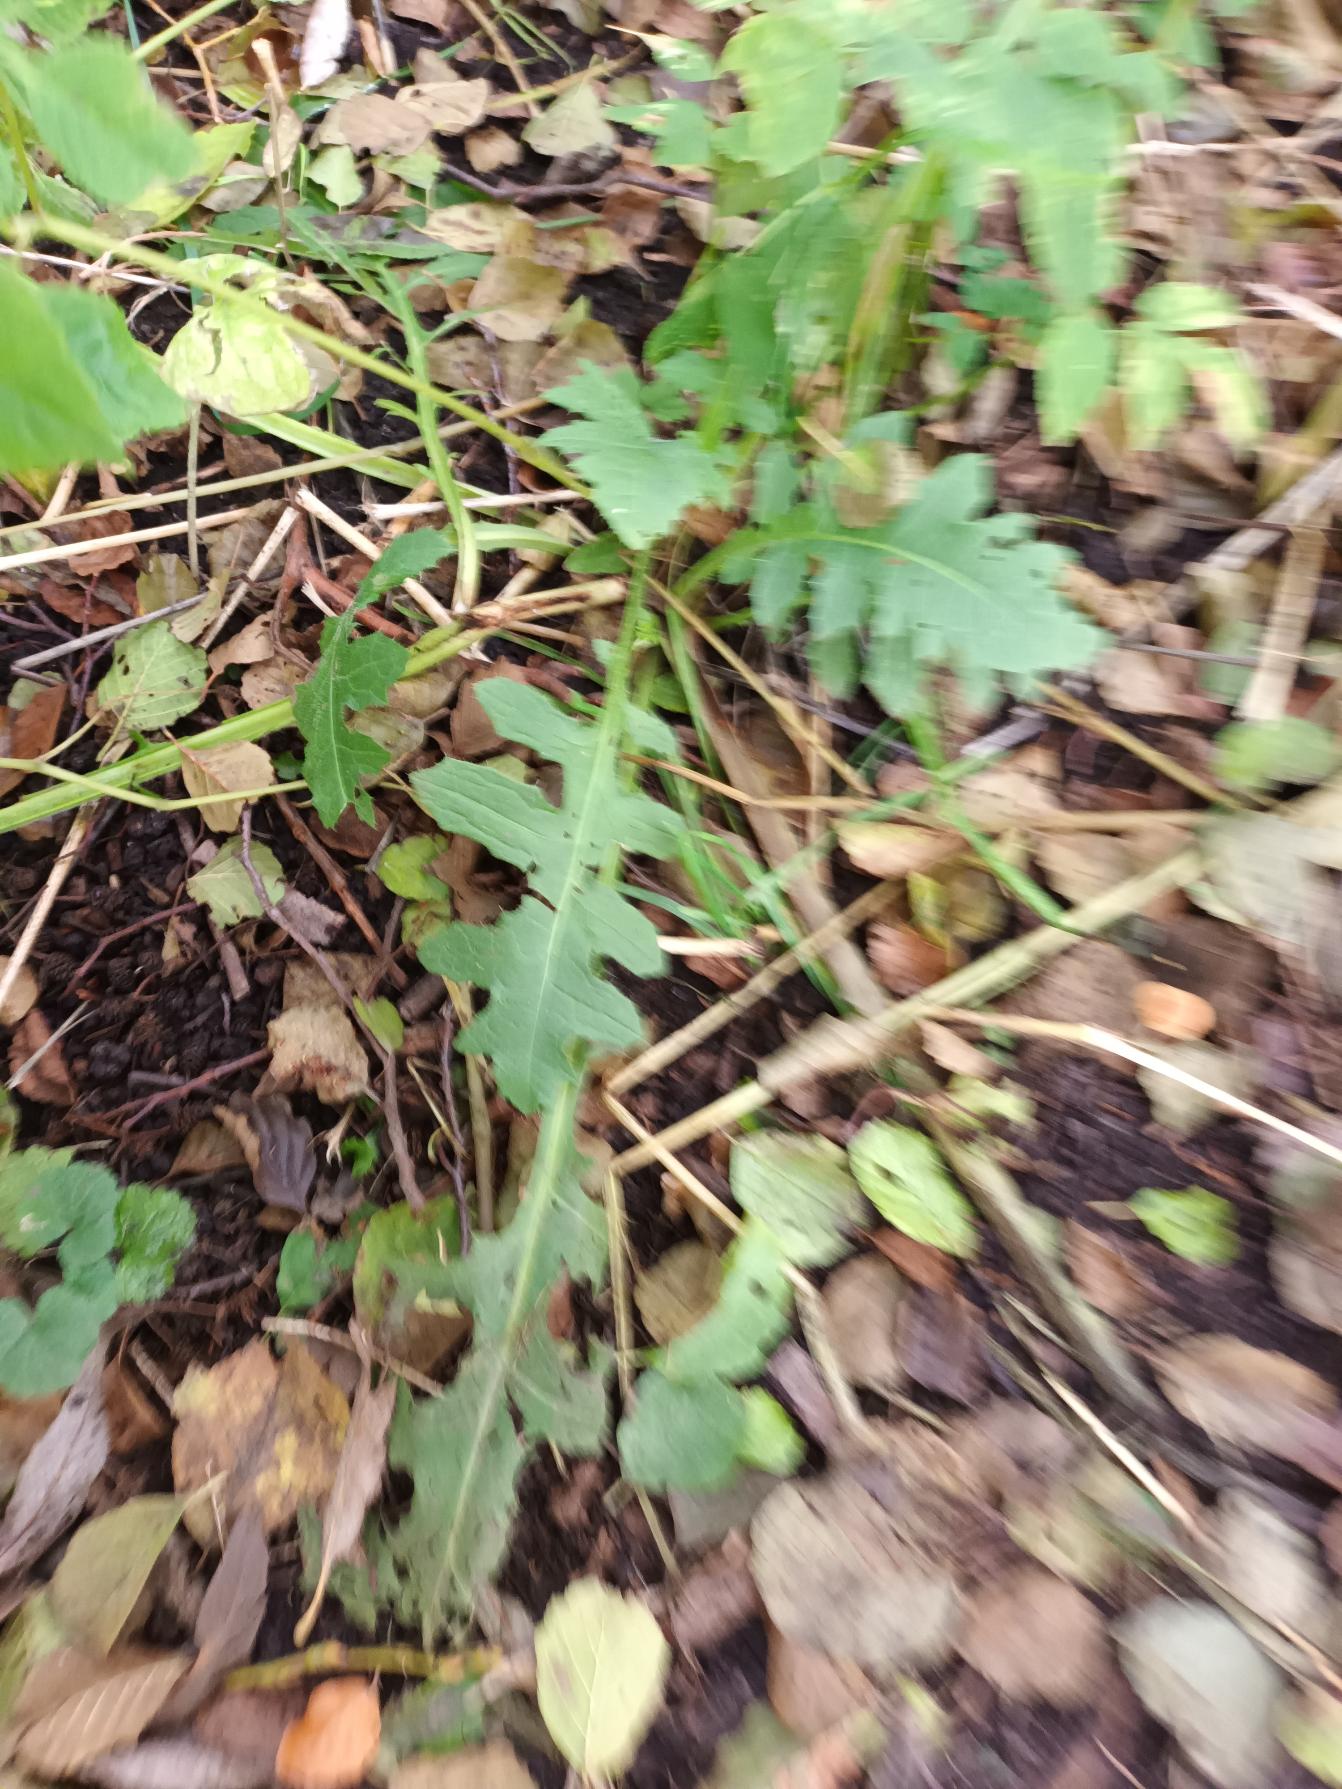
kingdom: Plantae
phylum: Tracheophyta
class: Magnoliopsida
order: Asterales
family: Asteraceae
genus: Cirsium
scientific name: Cirsium oleraceum
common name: Kål-tidsel
